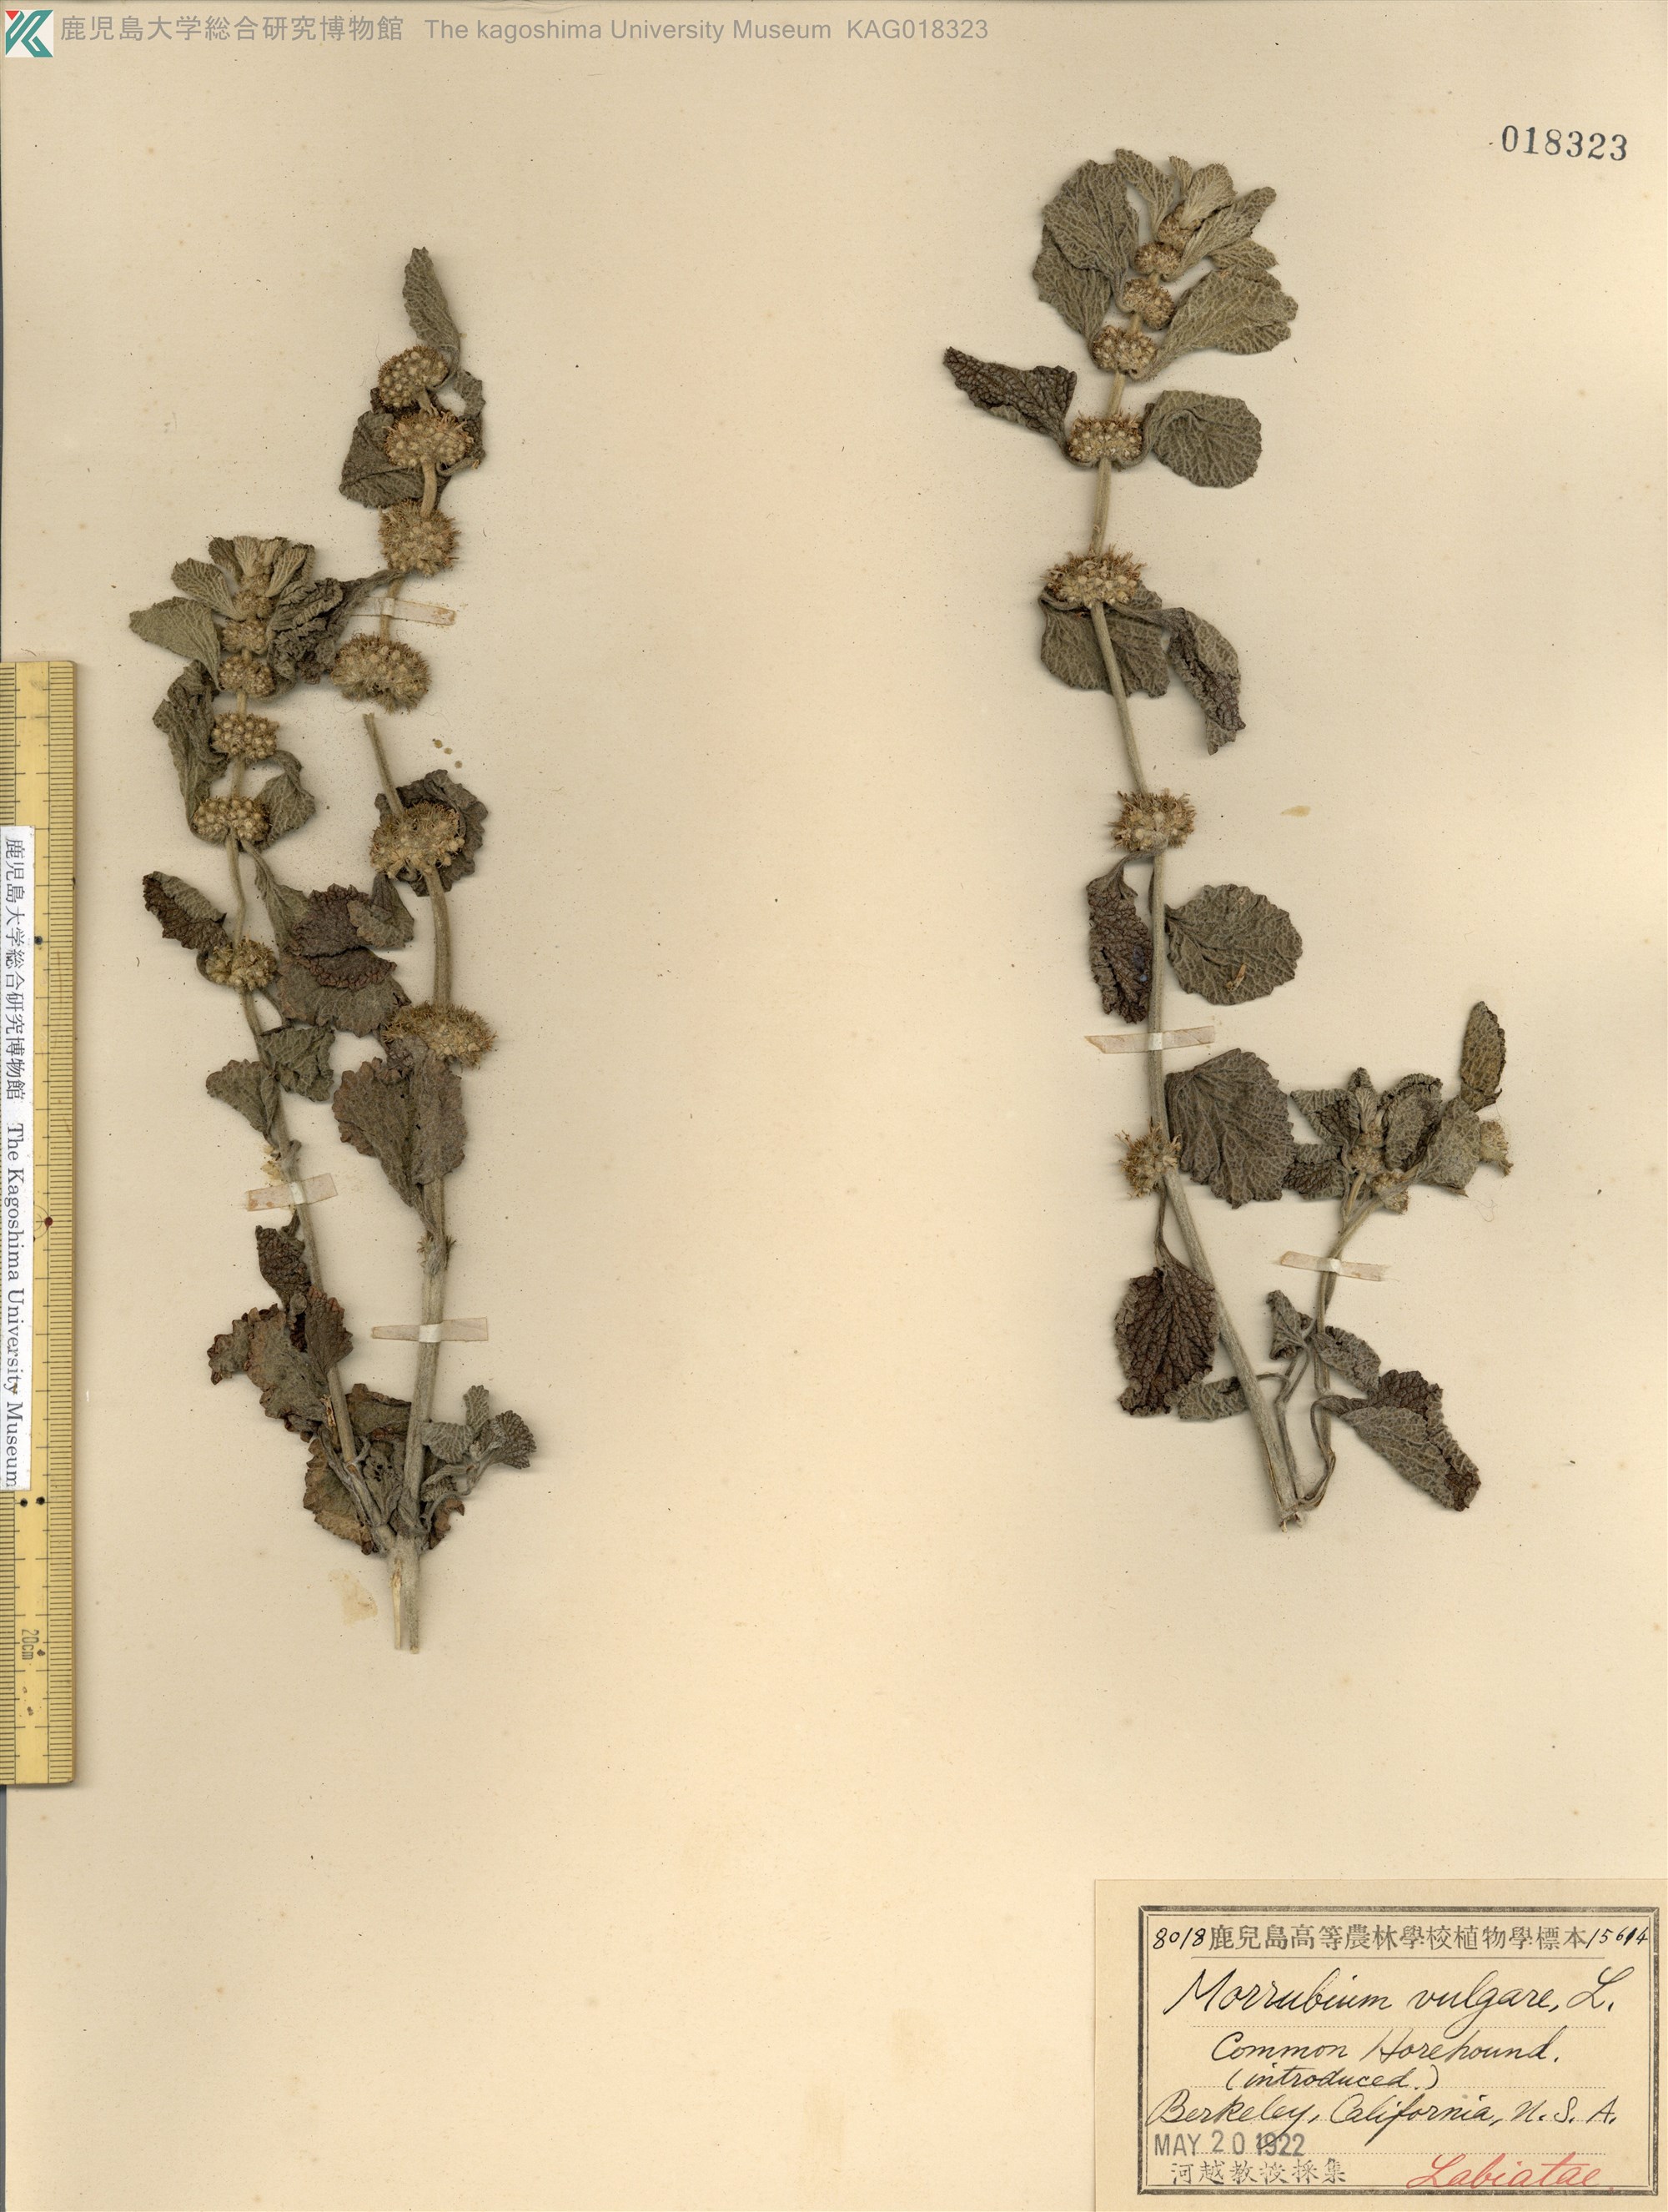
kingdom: Plantae
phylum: Tracheophyta
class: Magnoliopsida
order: Lamiales
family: Lamiaceae
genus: Marrubium
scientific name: Marrubium vulgare
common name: Horehound
